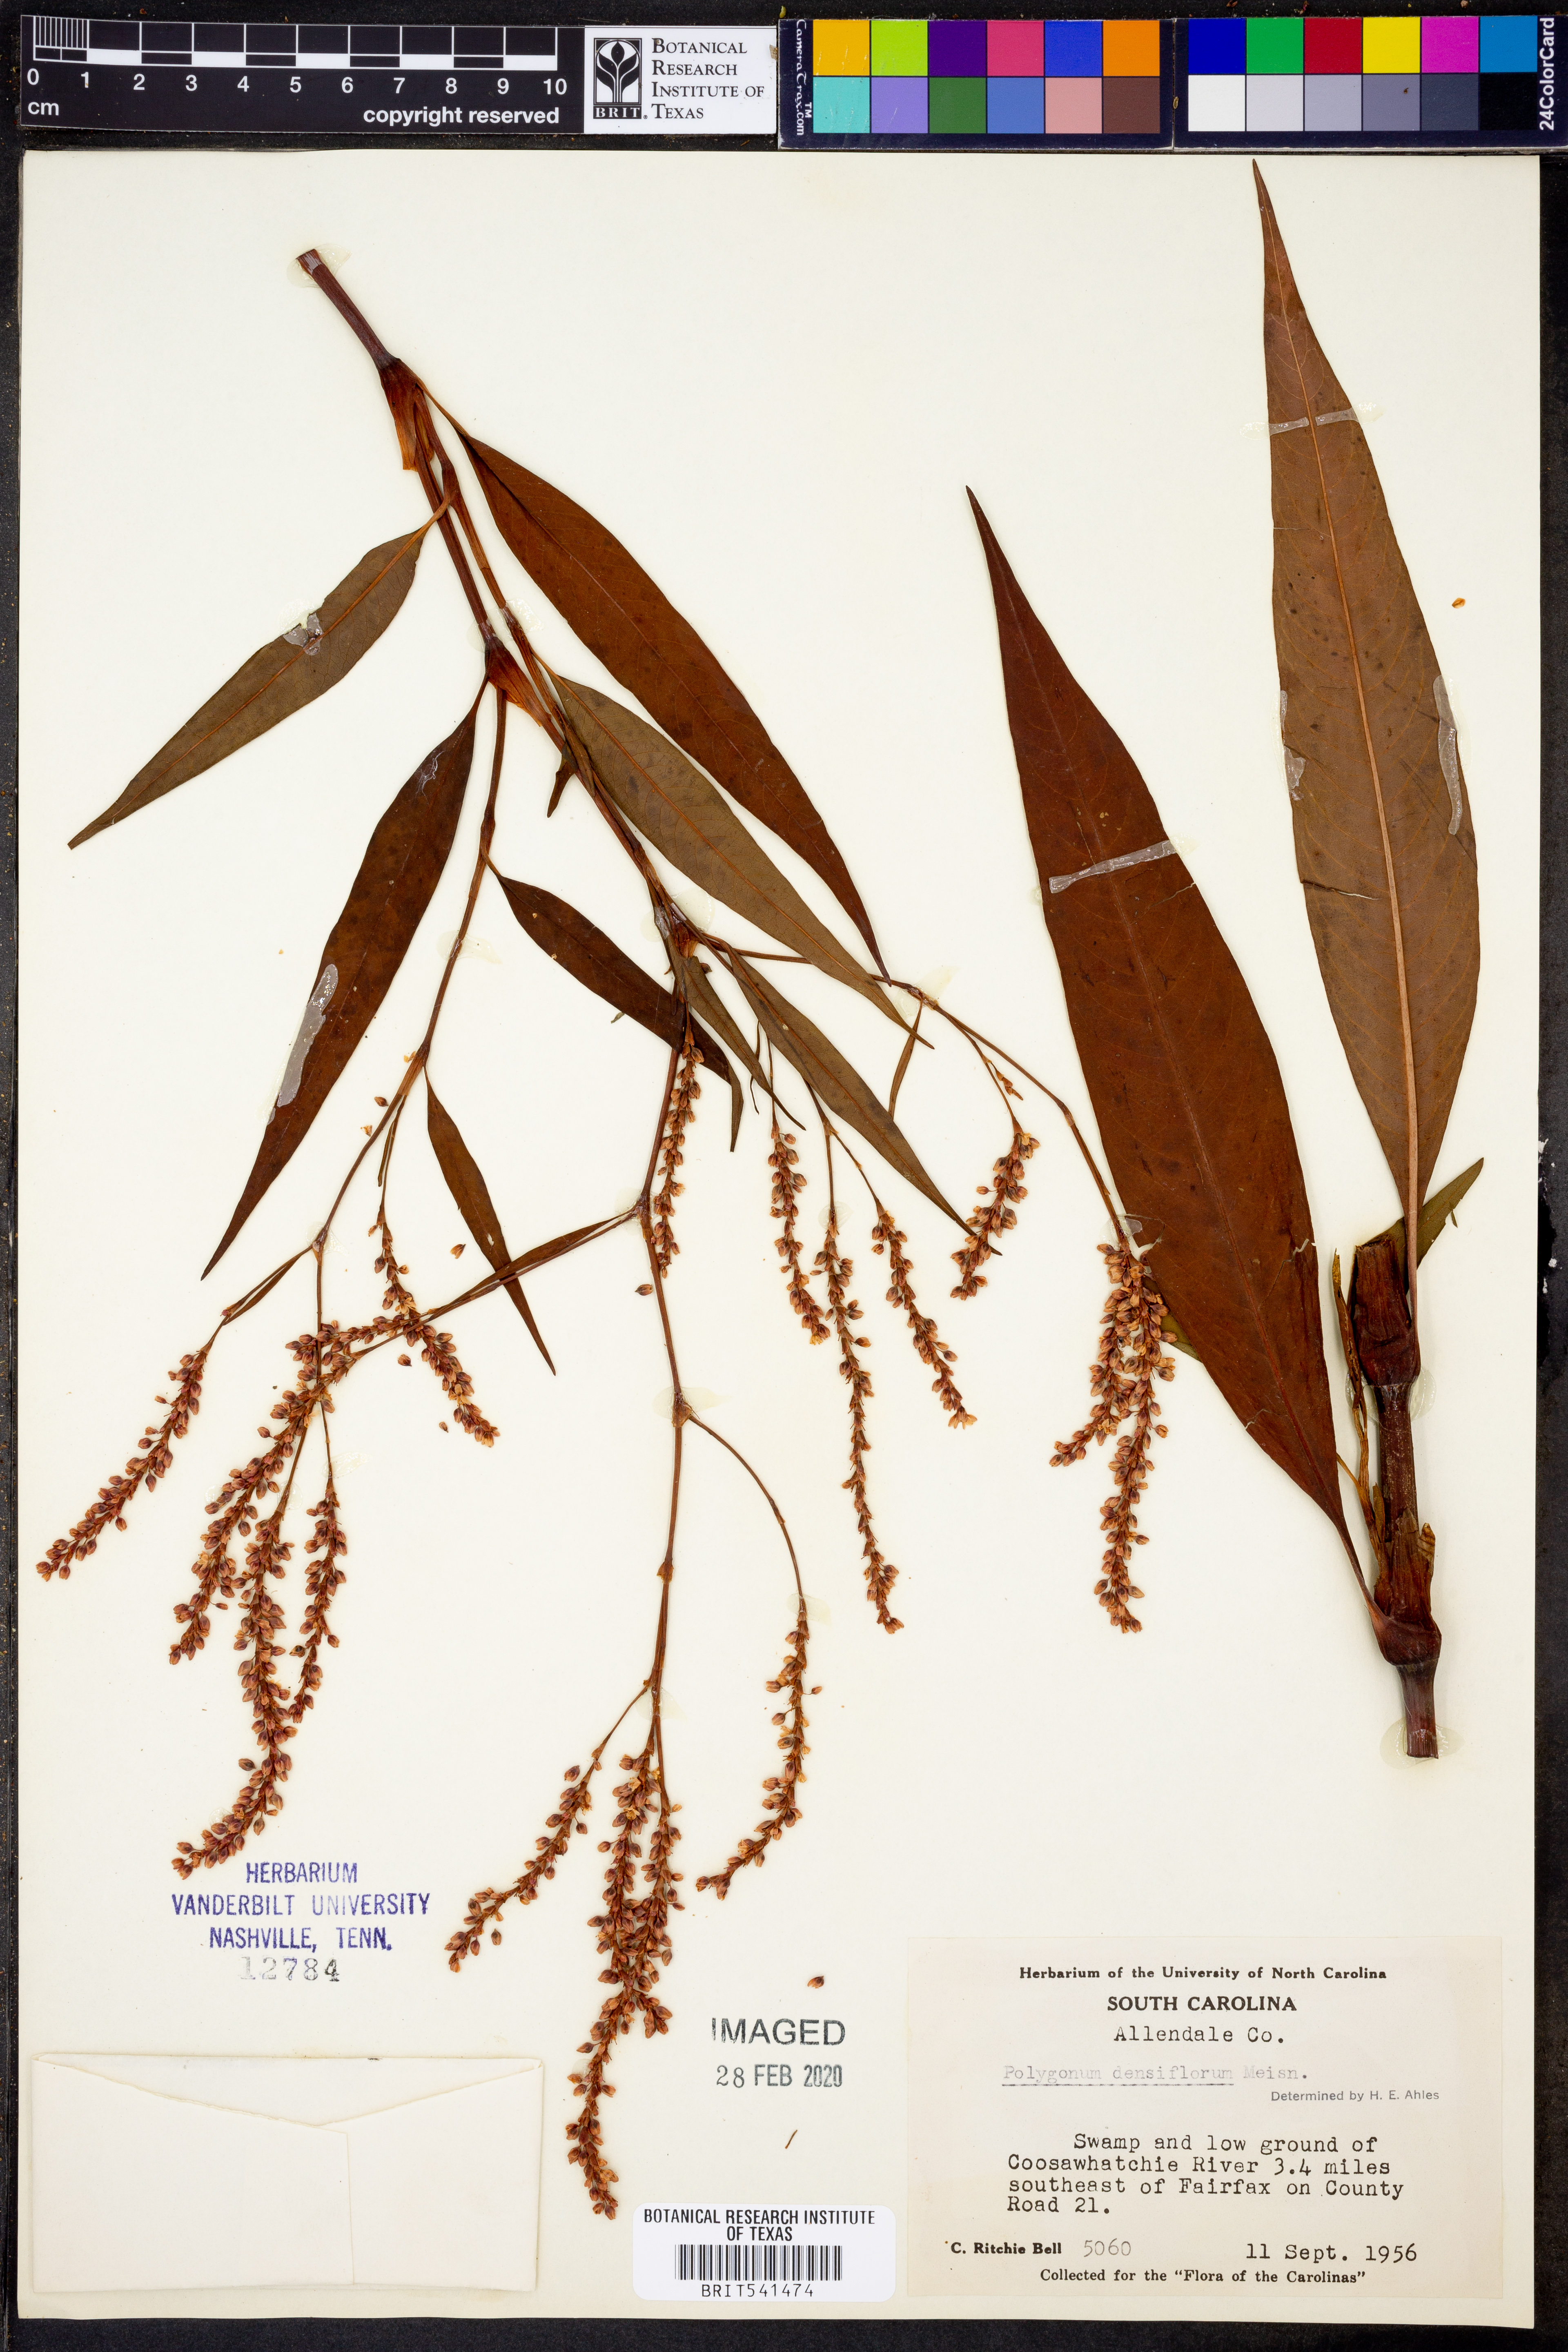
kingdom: Plantae
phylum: Tracheophyta
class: Magnoliopsida
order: Caryophyllales
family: Polygonaceae
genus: Persicaria
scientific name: Persicaria glabra
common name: Denseflower knotweed
